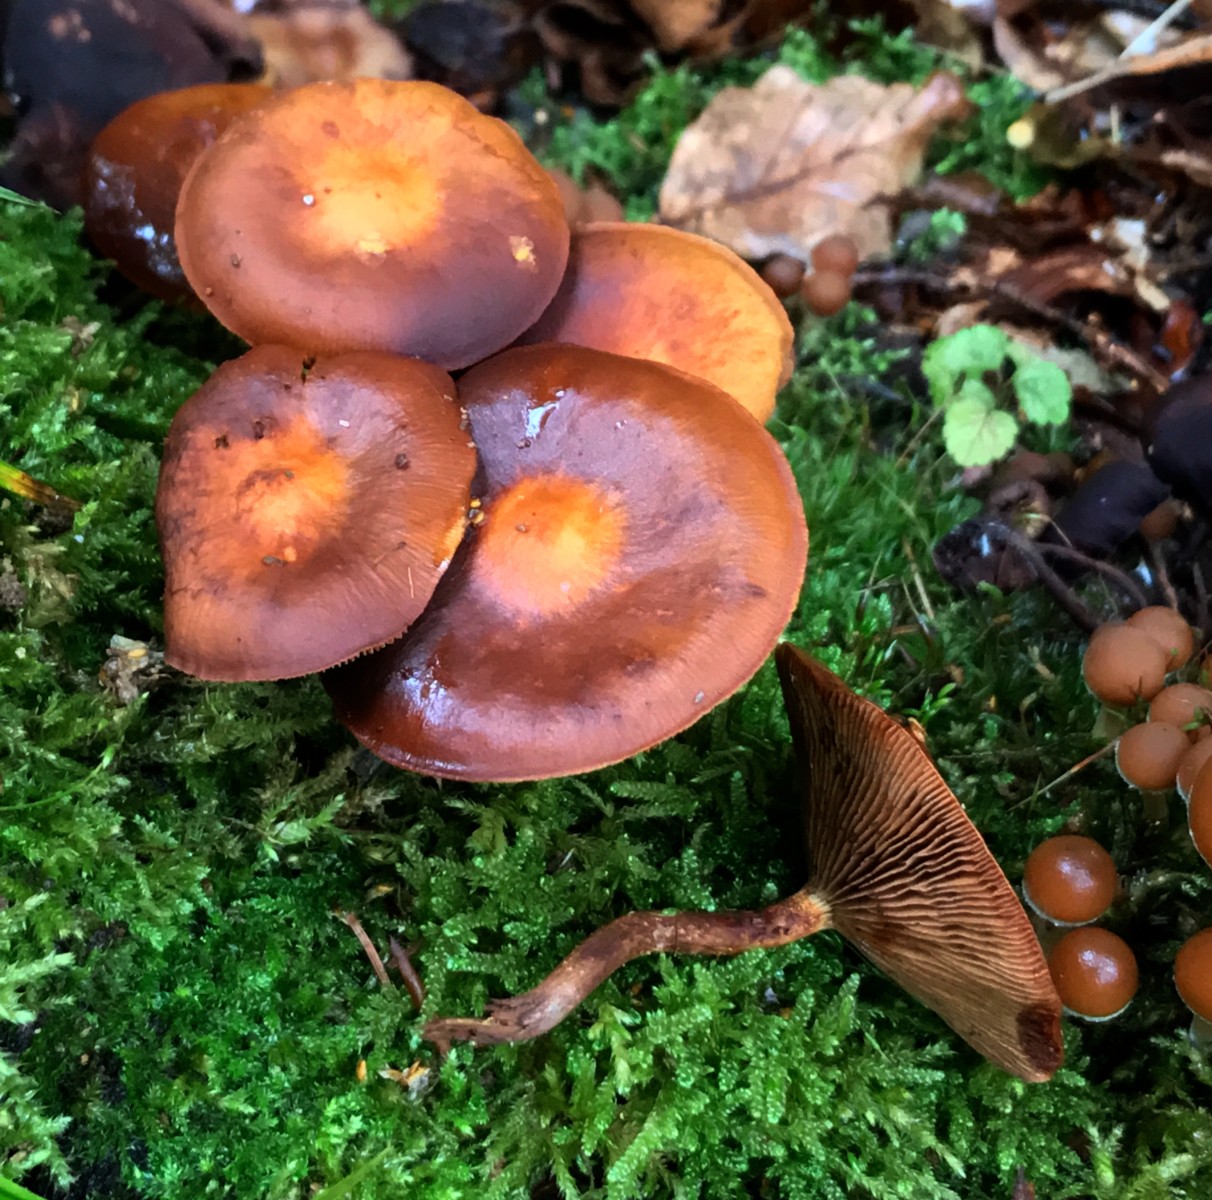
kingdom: Fungi
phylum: Basidiomycota
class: Agaricomycetes
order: Agaricales
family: Strophariaceae
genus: Kuehneromyces
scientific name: Kuehneromyces mutabilis
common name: foranderlig skælhat
